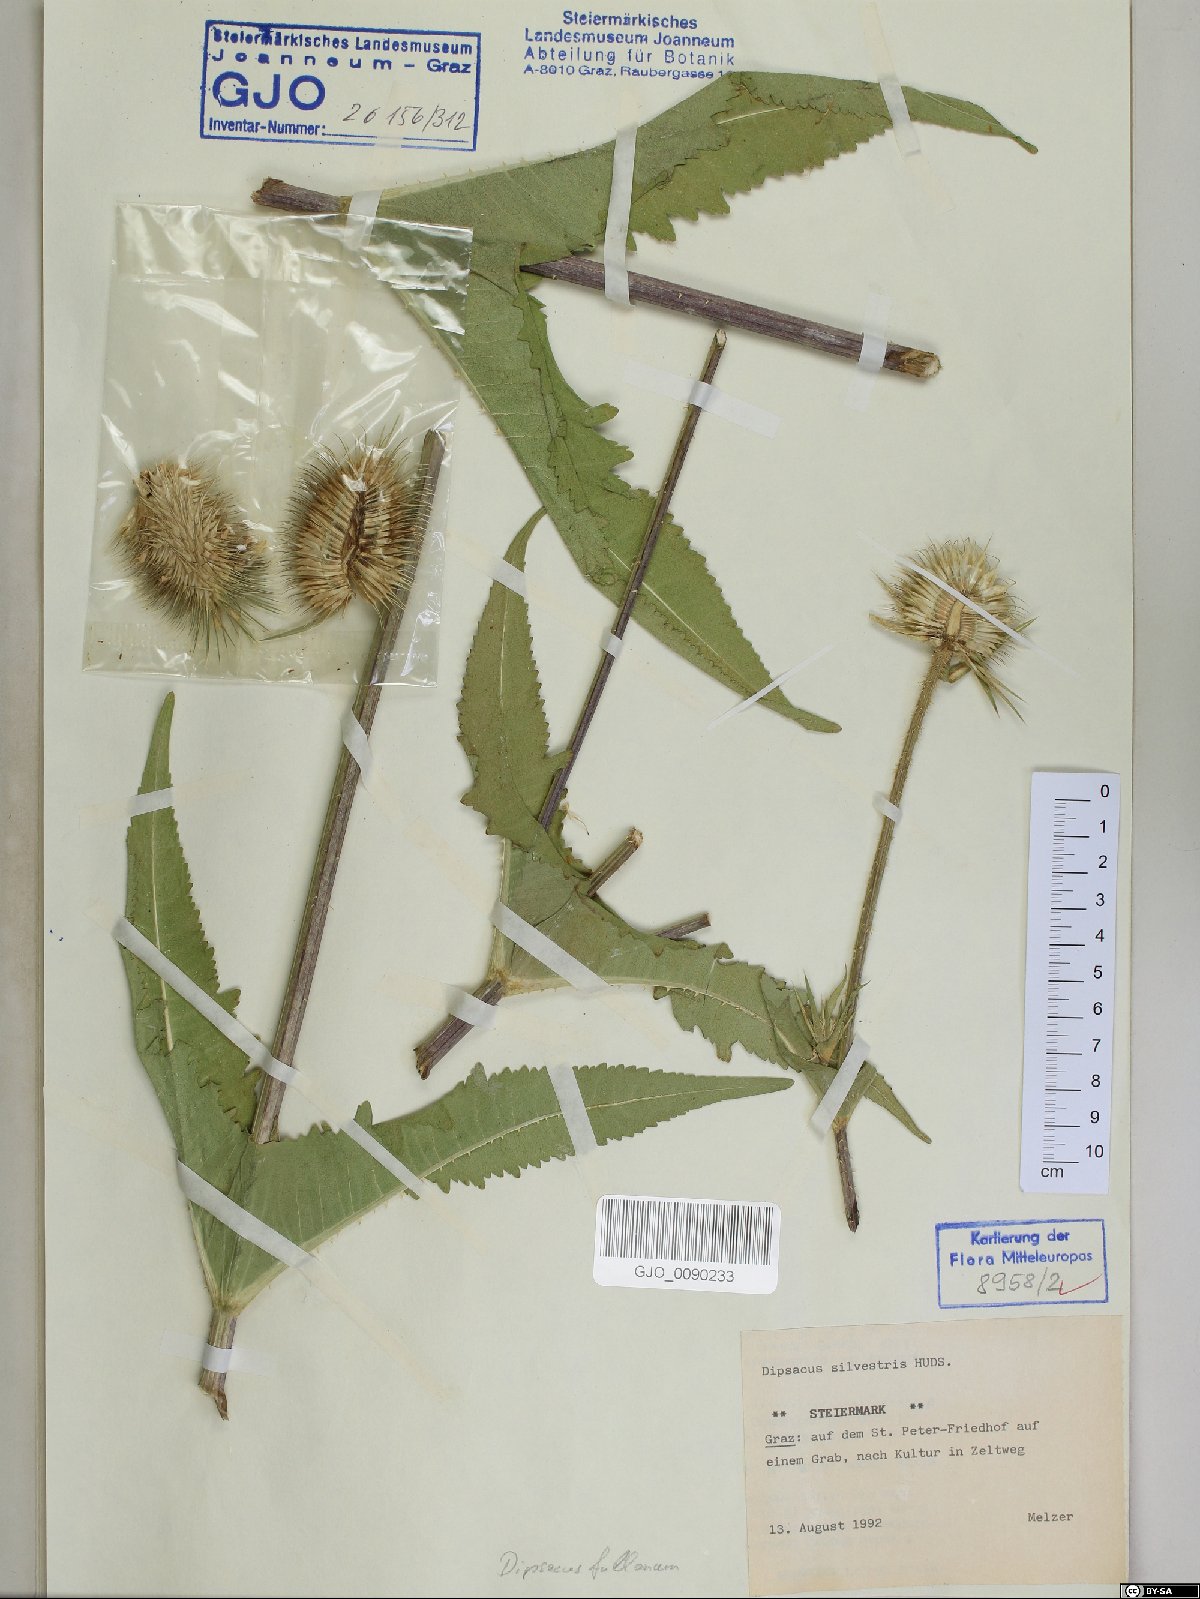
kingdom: Plantae
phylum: Tracheophyta
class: Magnoliopsida
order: Dipsacales
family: Caprifoliaceae
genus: Dipsacus
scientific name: Dipsacus fullonum
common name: Teasel
